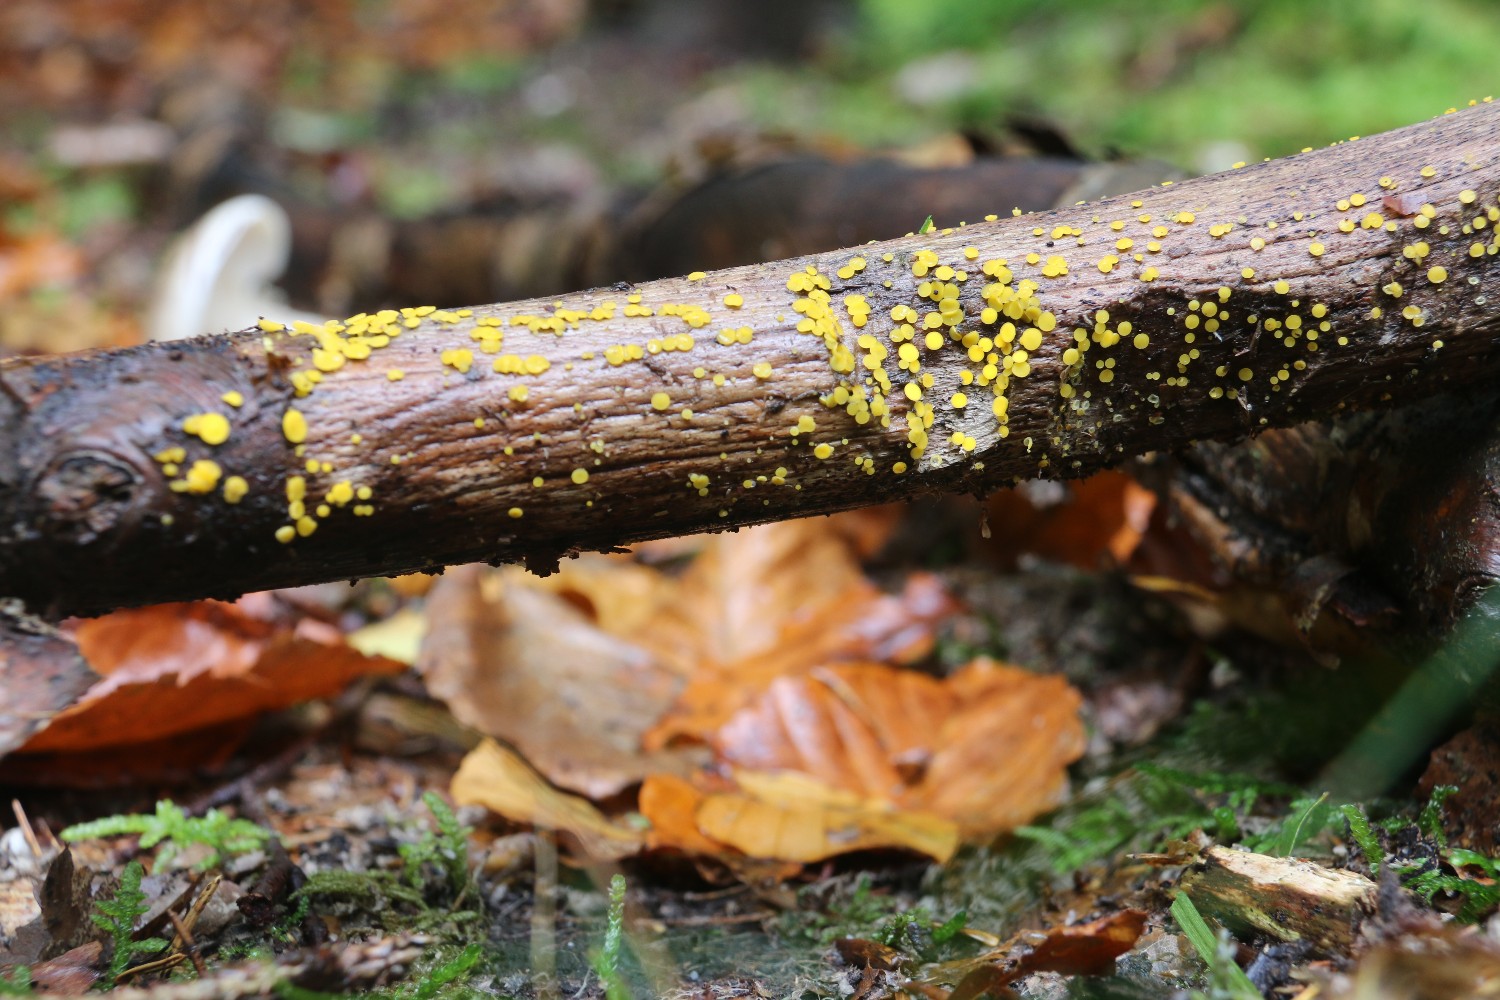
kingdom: Fungi
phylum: Ascomycota
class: Leotiomycetes
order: Helotiales
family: Pezizellaceae
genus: Calycina
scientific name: Calycina citrina
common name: almindelig gulskive
